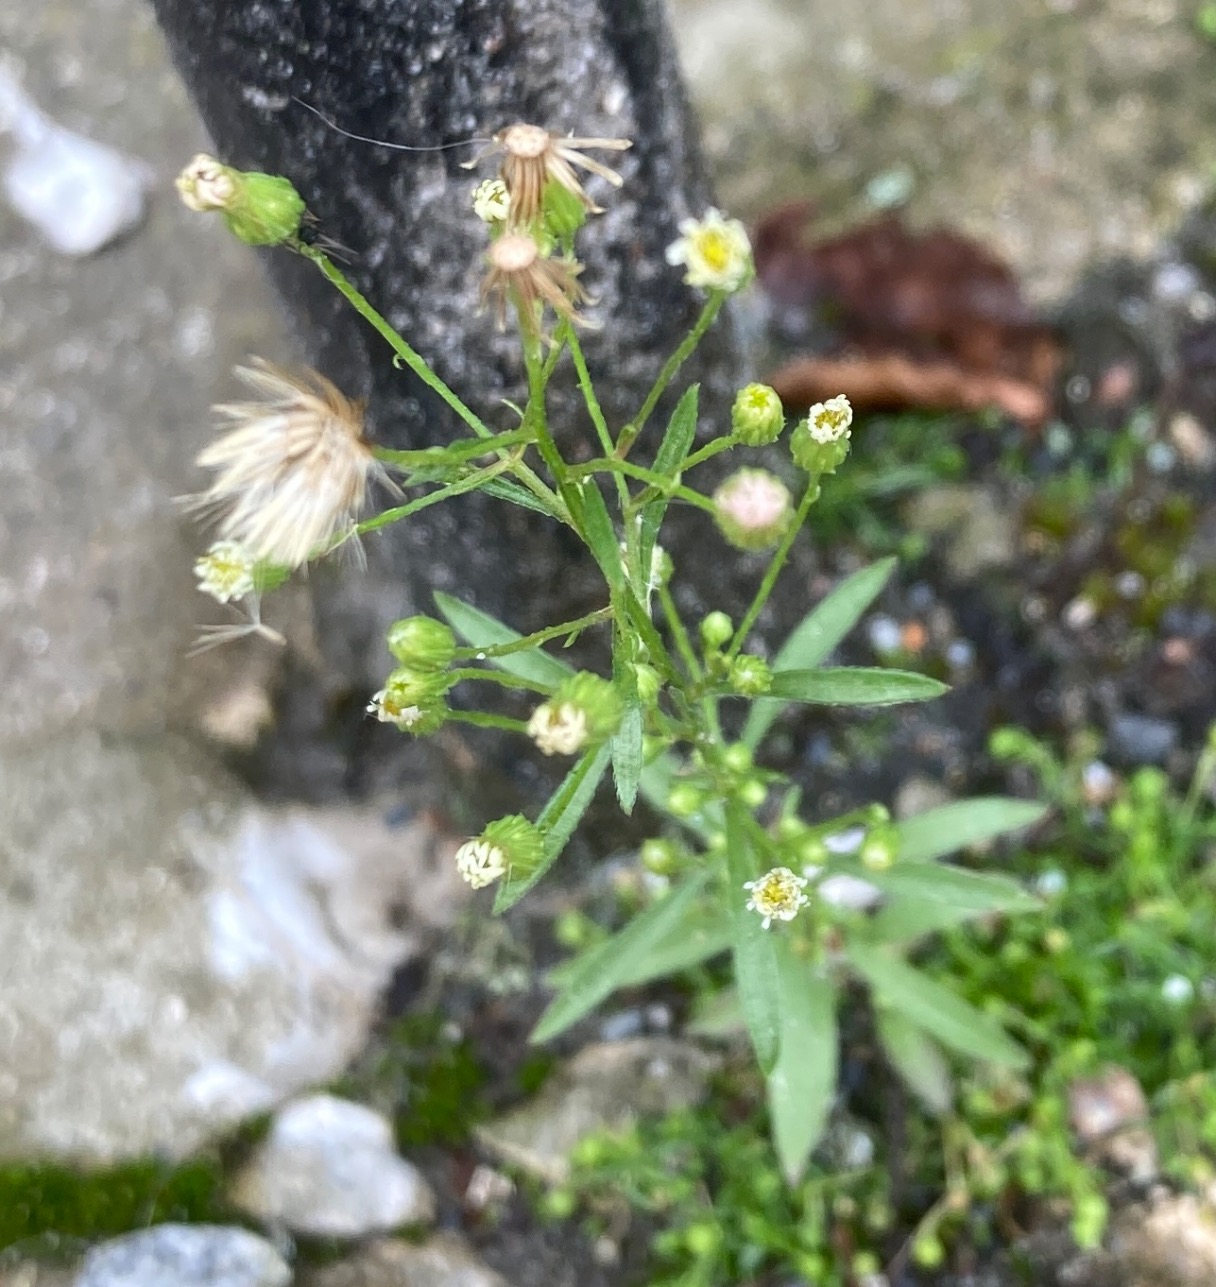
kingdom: Plantae
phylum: Tracheophyta
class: Magnoliopsida
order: Asterales
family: Asteraceae
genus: Erigeron
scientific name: Erigeron canadensis
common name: Kanadisk bakkestjerne
